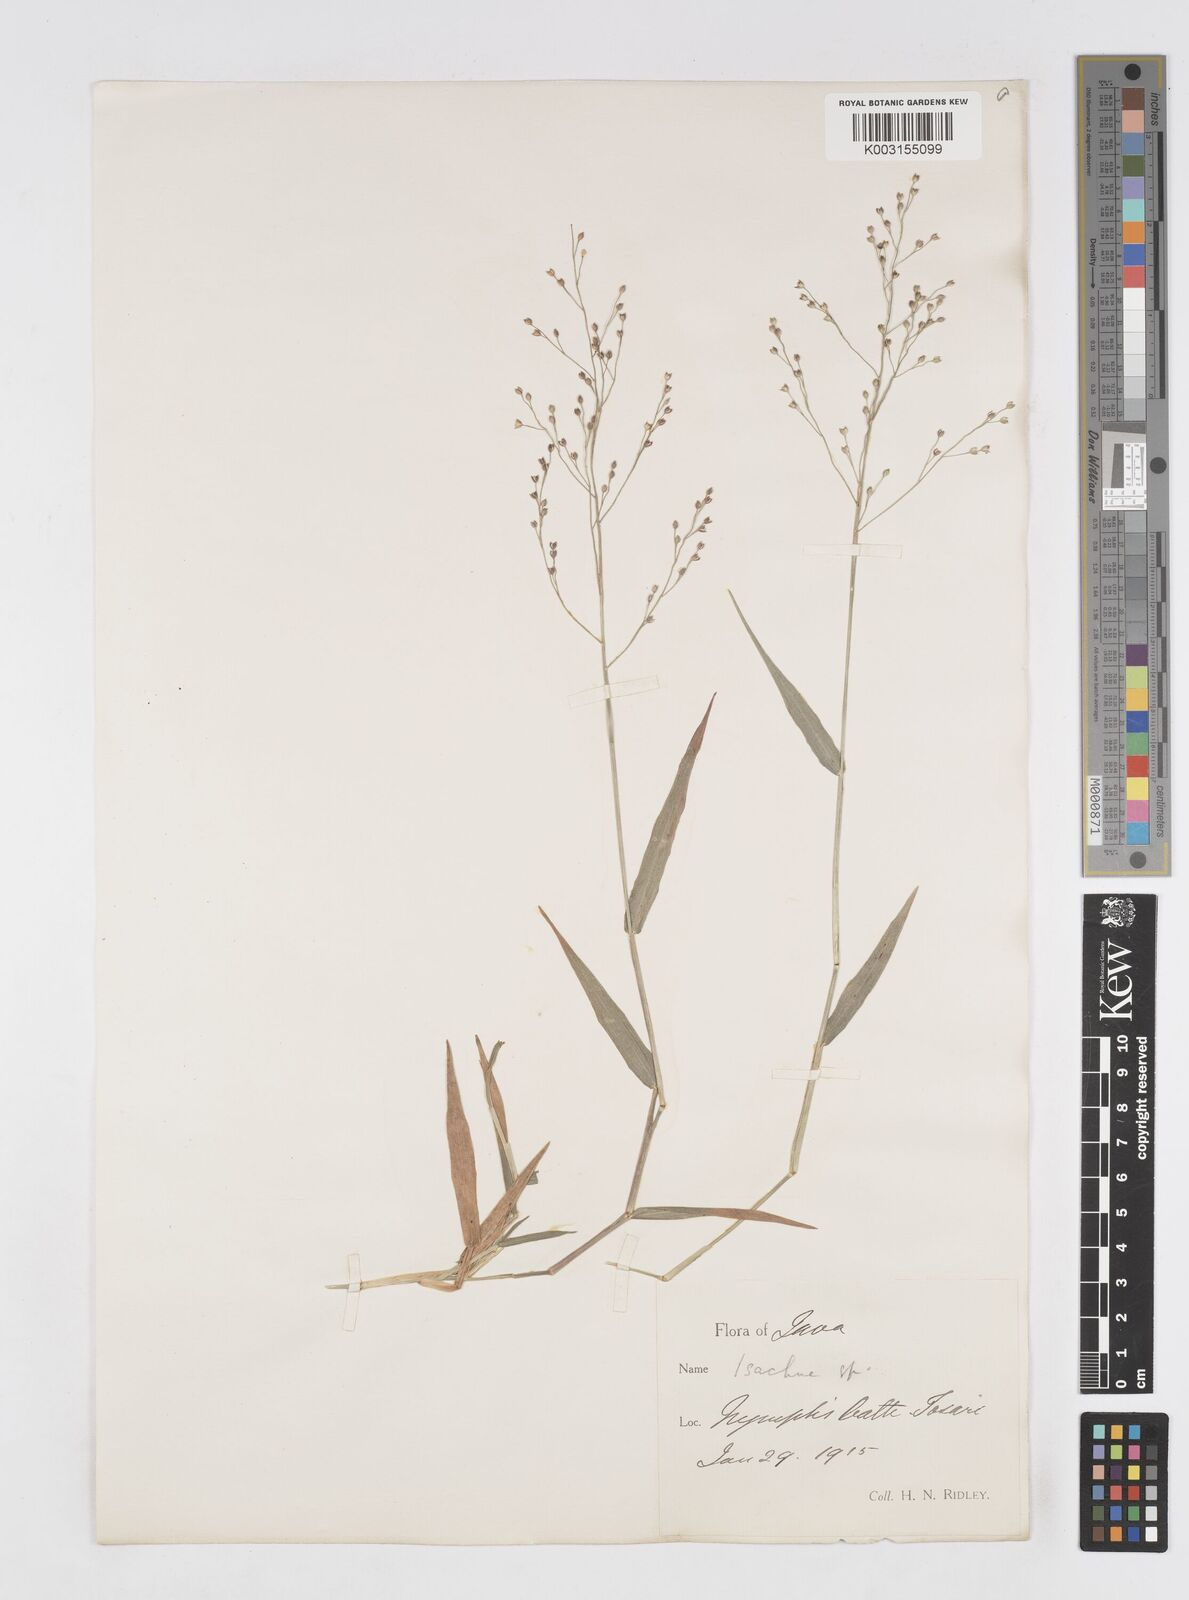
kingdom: Plantae
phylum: Tracheophyta
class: Liliopsida
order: Poales
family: Poaceae
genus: Isachne
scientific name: Isachne
